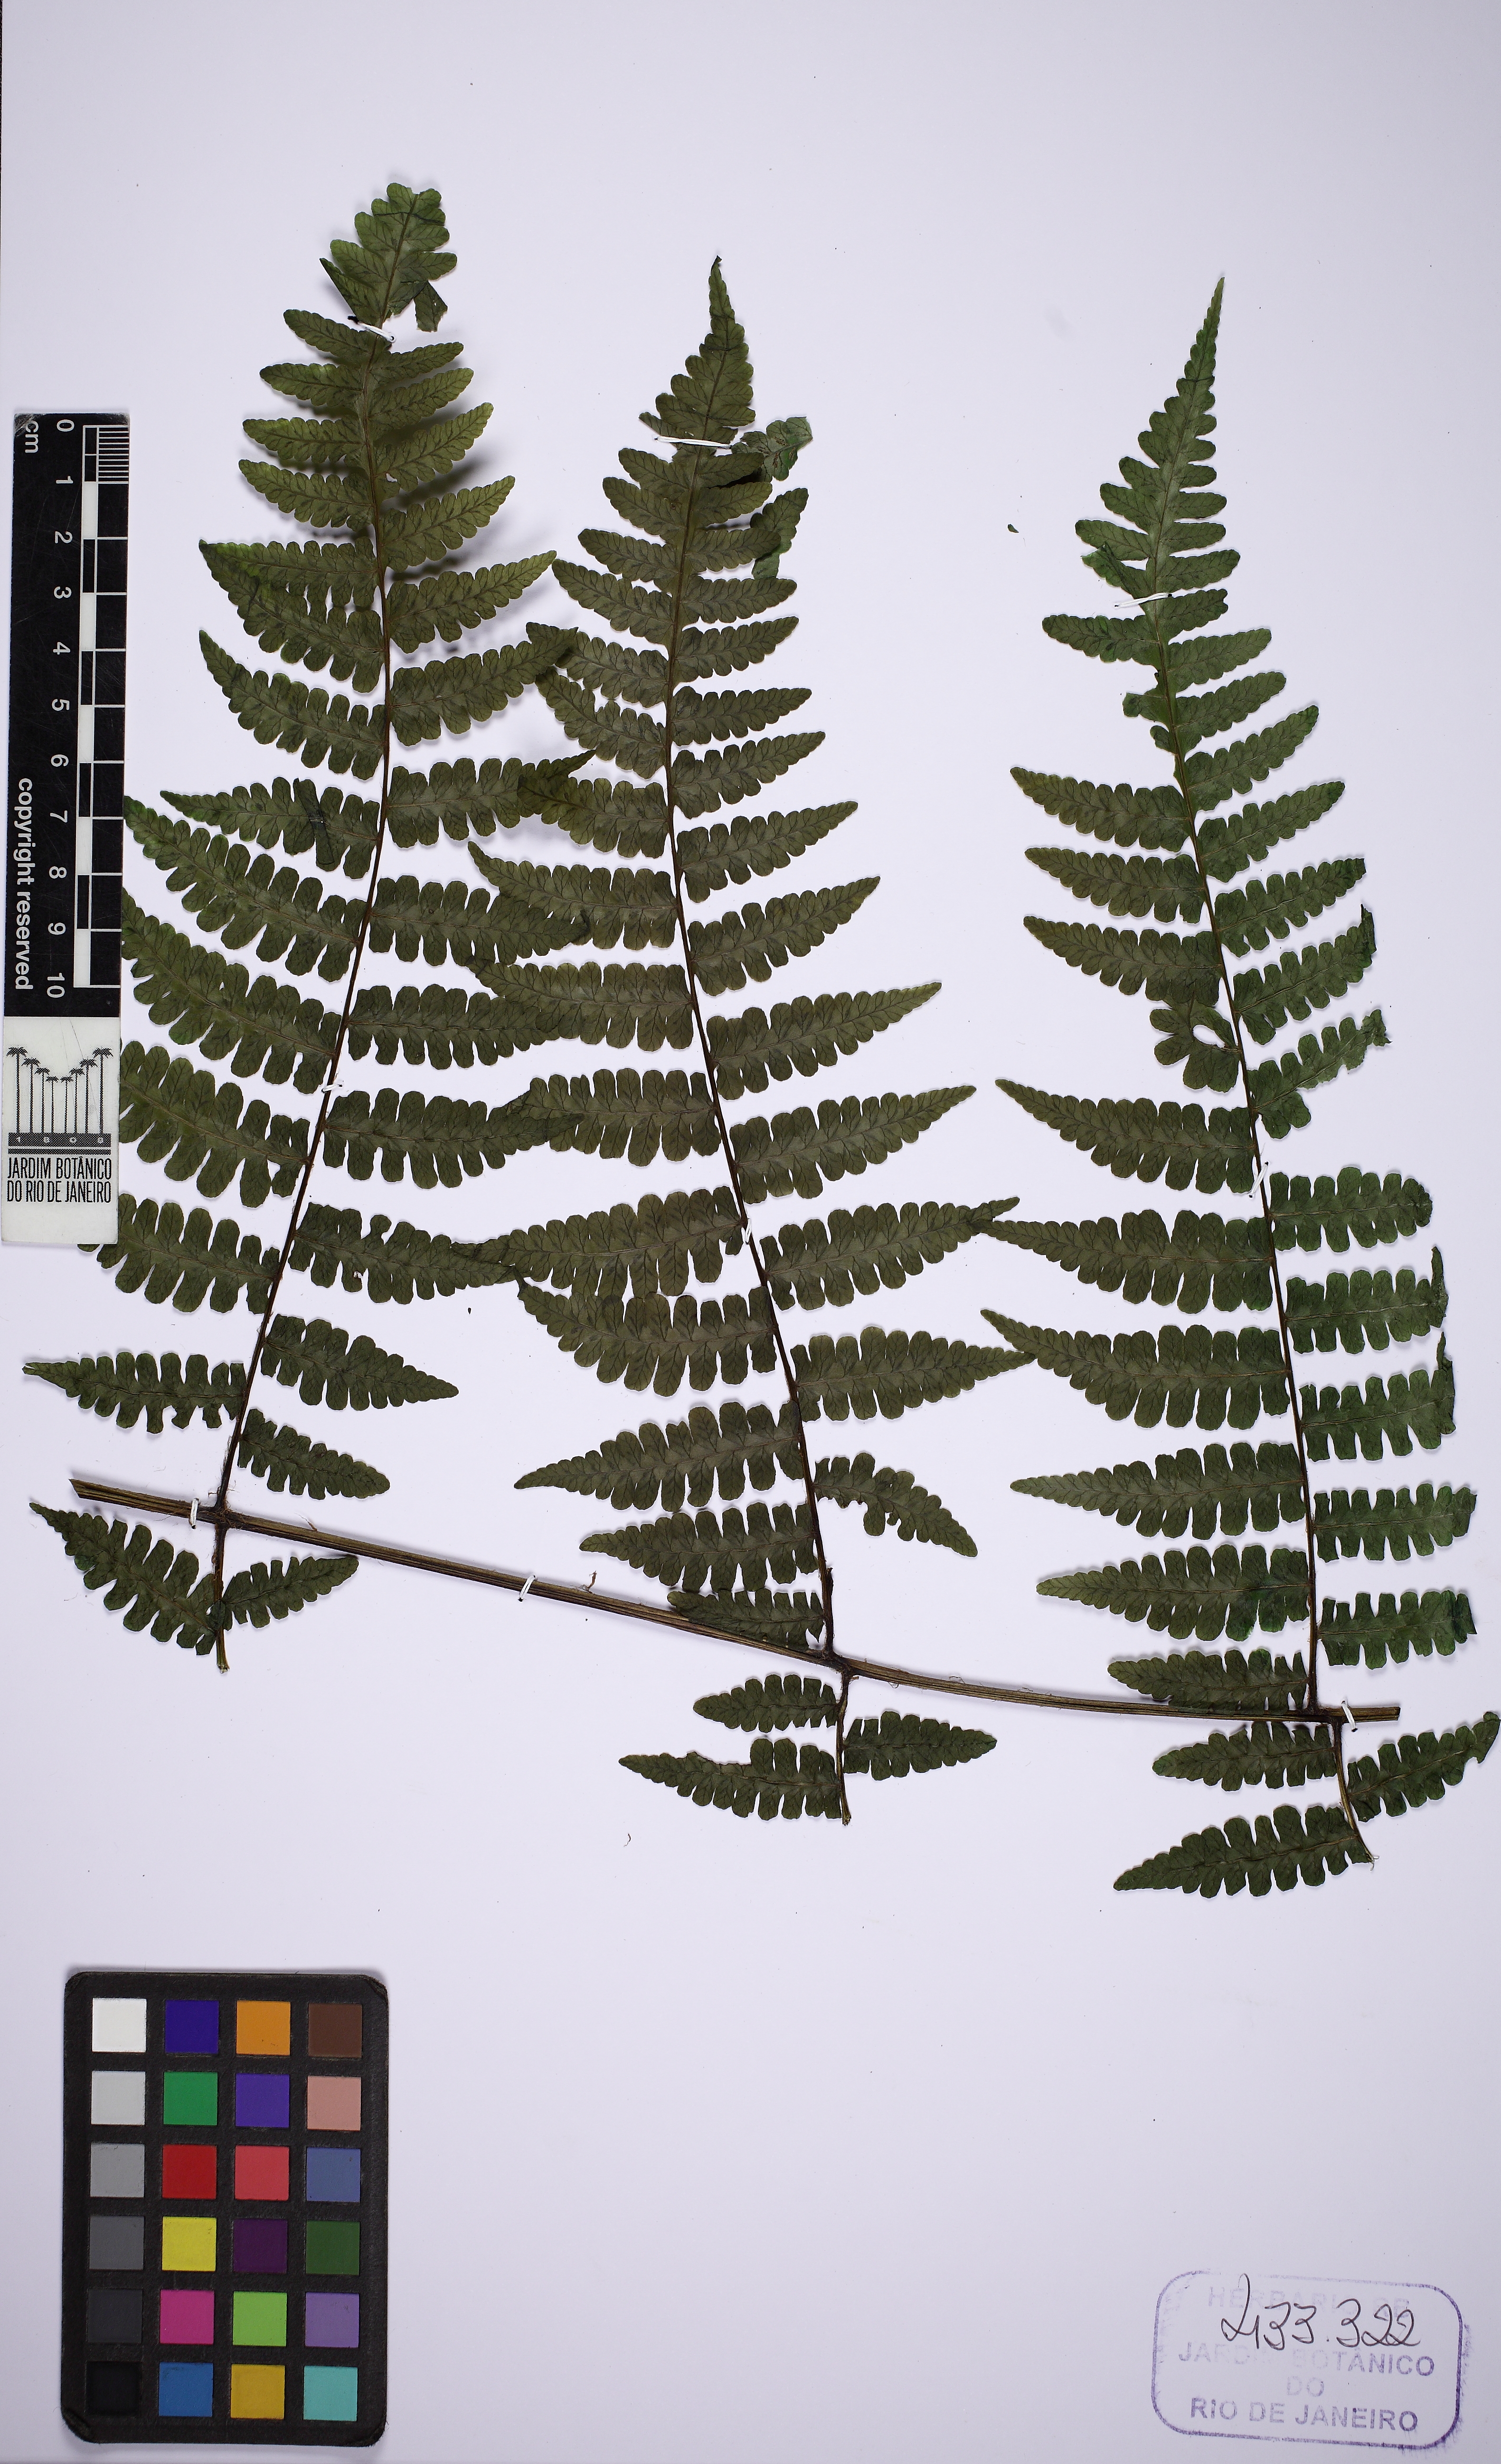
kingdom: Plantae
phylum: Tracheophyta
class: Polypodiopsida
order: Polypodiales
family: Athyriaceae
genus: Diplazium
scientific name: Diplazium leptocarpon
